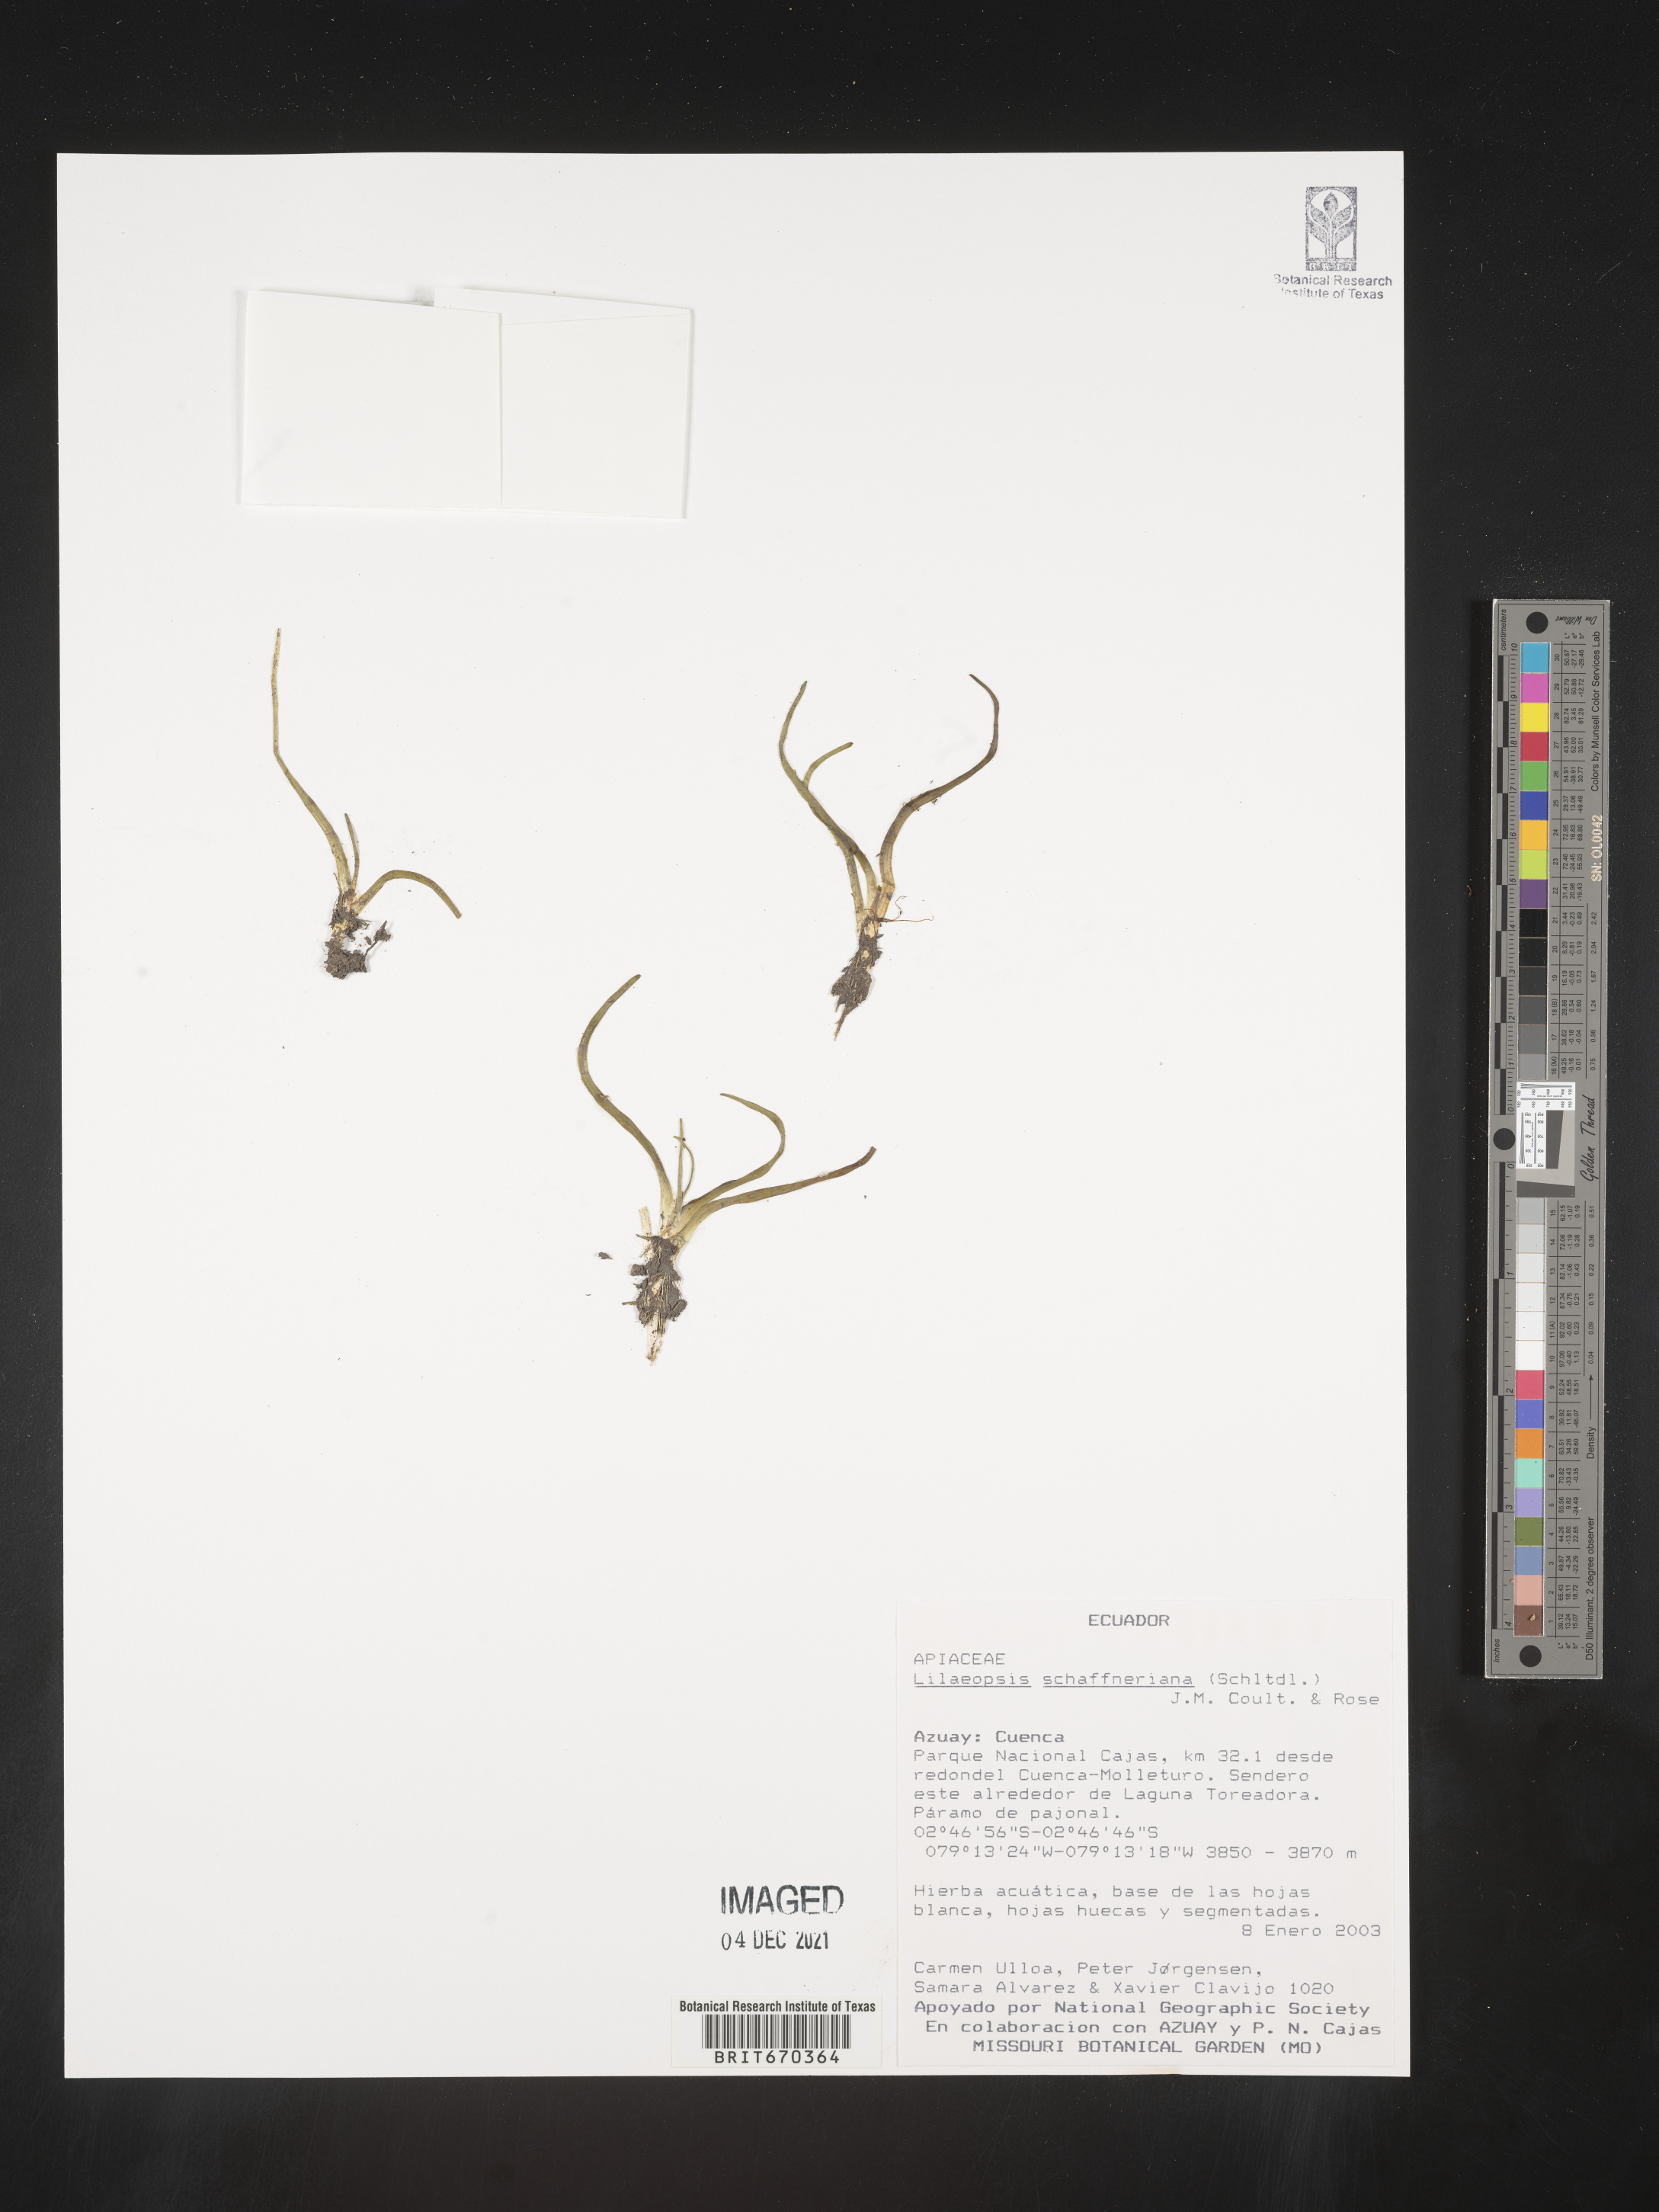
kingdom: Plantae
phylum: Tracheophyta
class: Magnoliopsida
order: Apiales
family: Apiaceae
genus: Lilaeopsis
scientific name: Lilaeopsis schaffneriana
